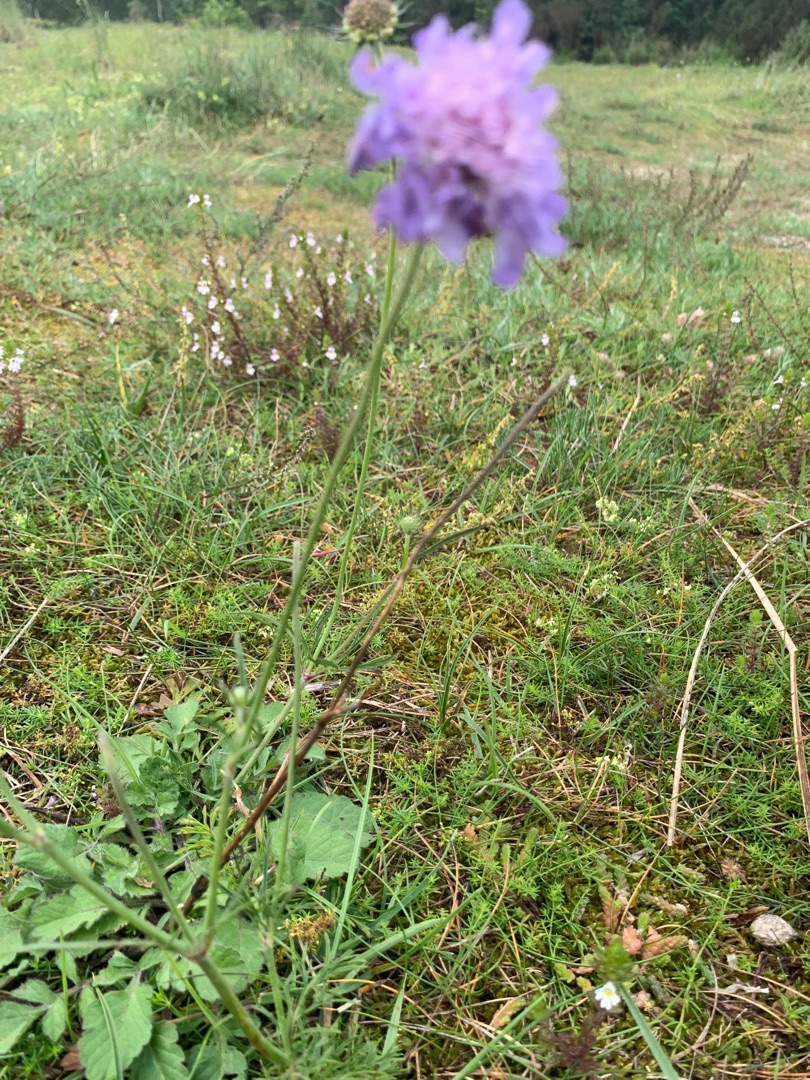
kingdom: Plantae
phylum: Tracheophyta
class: Magnoliopsida
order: Dipsacales
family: Caprifoliaceae
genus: Scabiosa
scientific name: Scabiosa columbaria
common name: Due-skabiose
